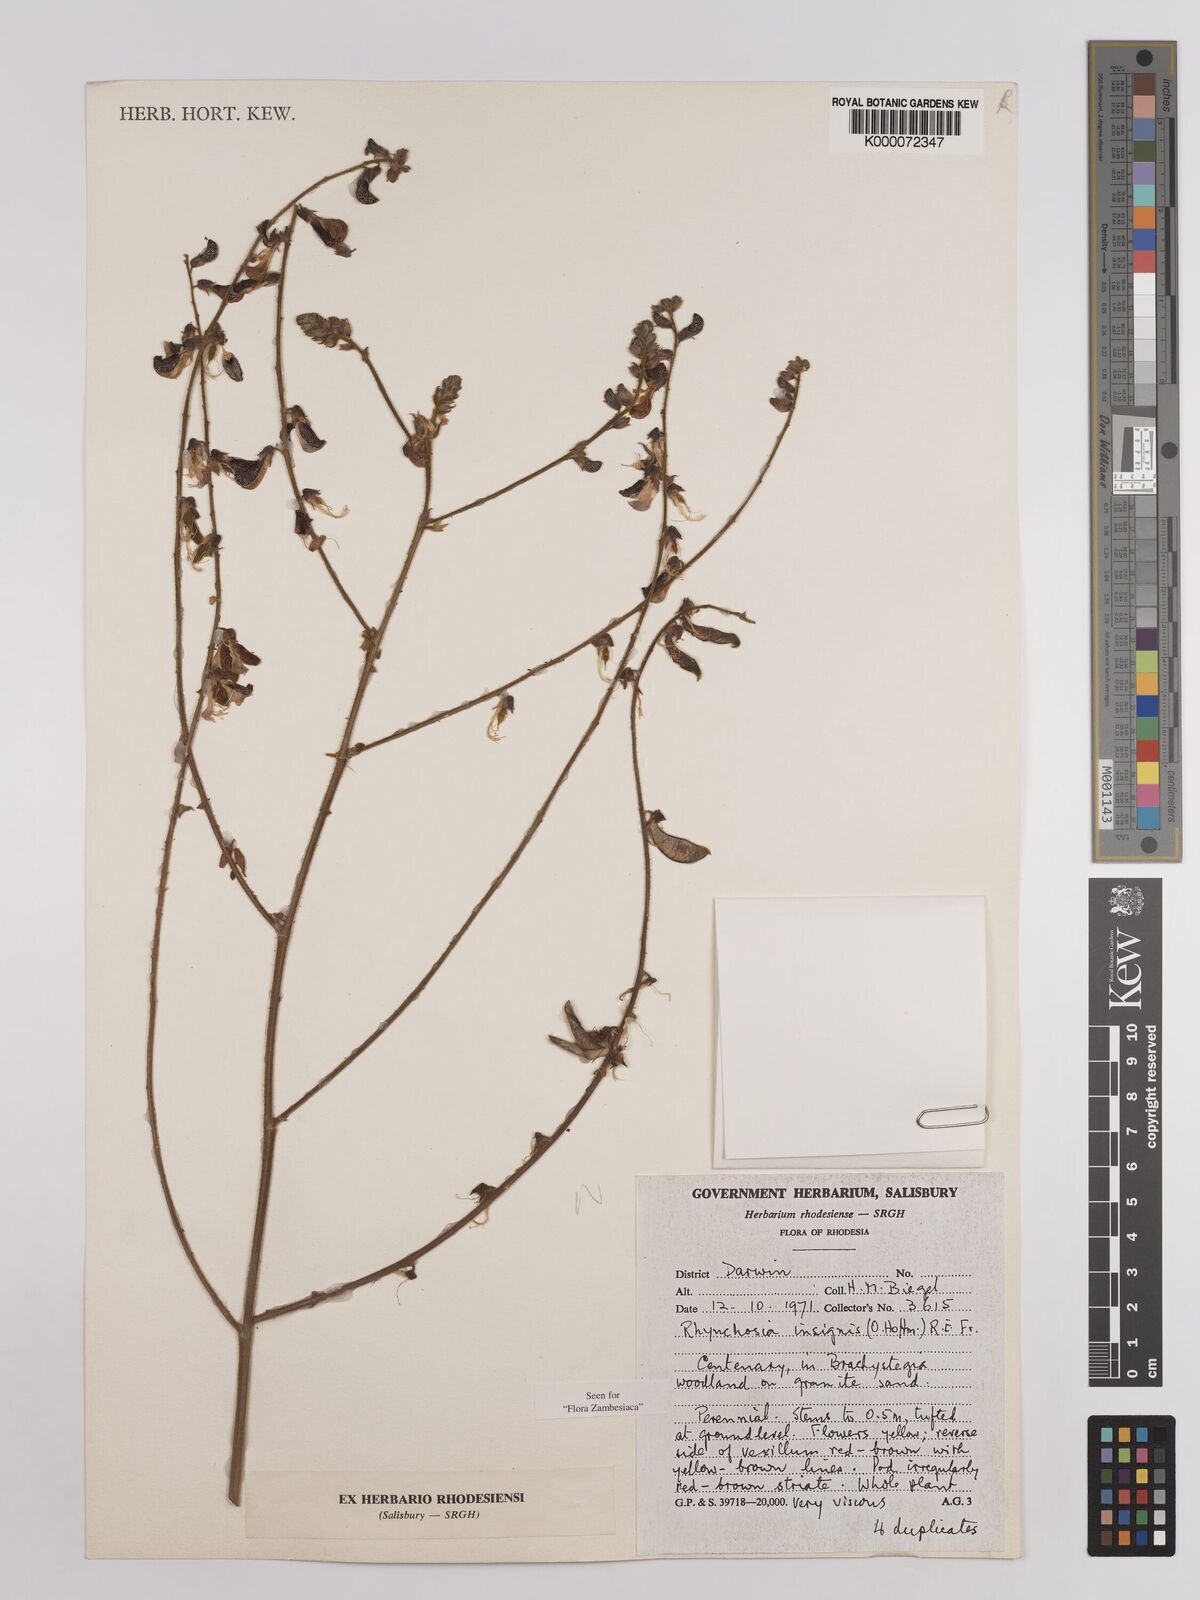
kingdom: Plantae
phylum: Tracheophyta
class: Magnoliopsida
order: Fabales
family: Fabaceae
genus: Rhynchosia
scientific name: Rhynchosia insignis
